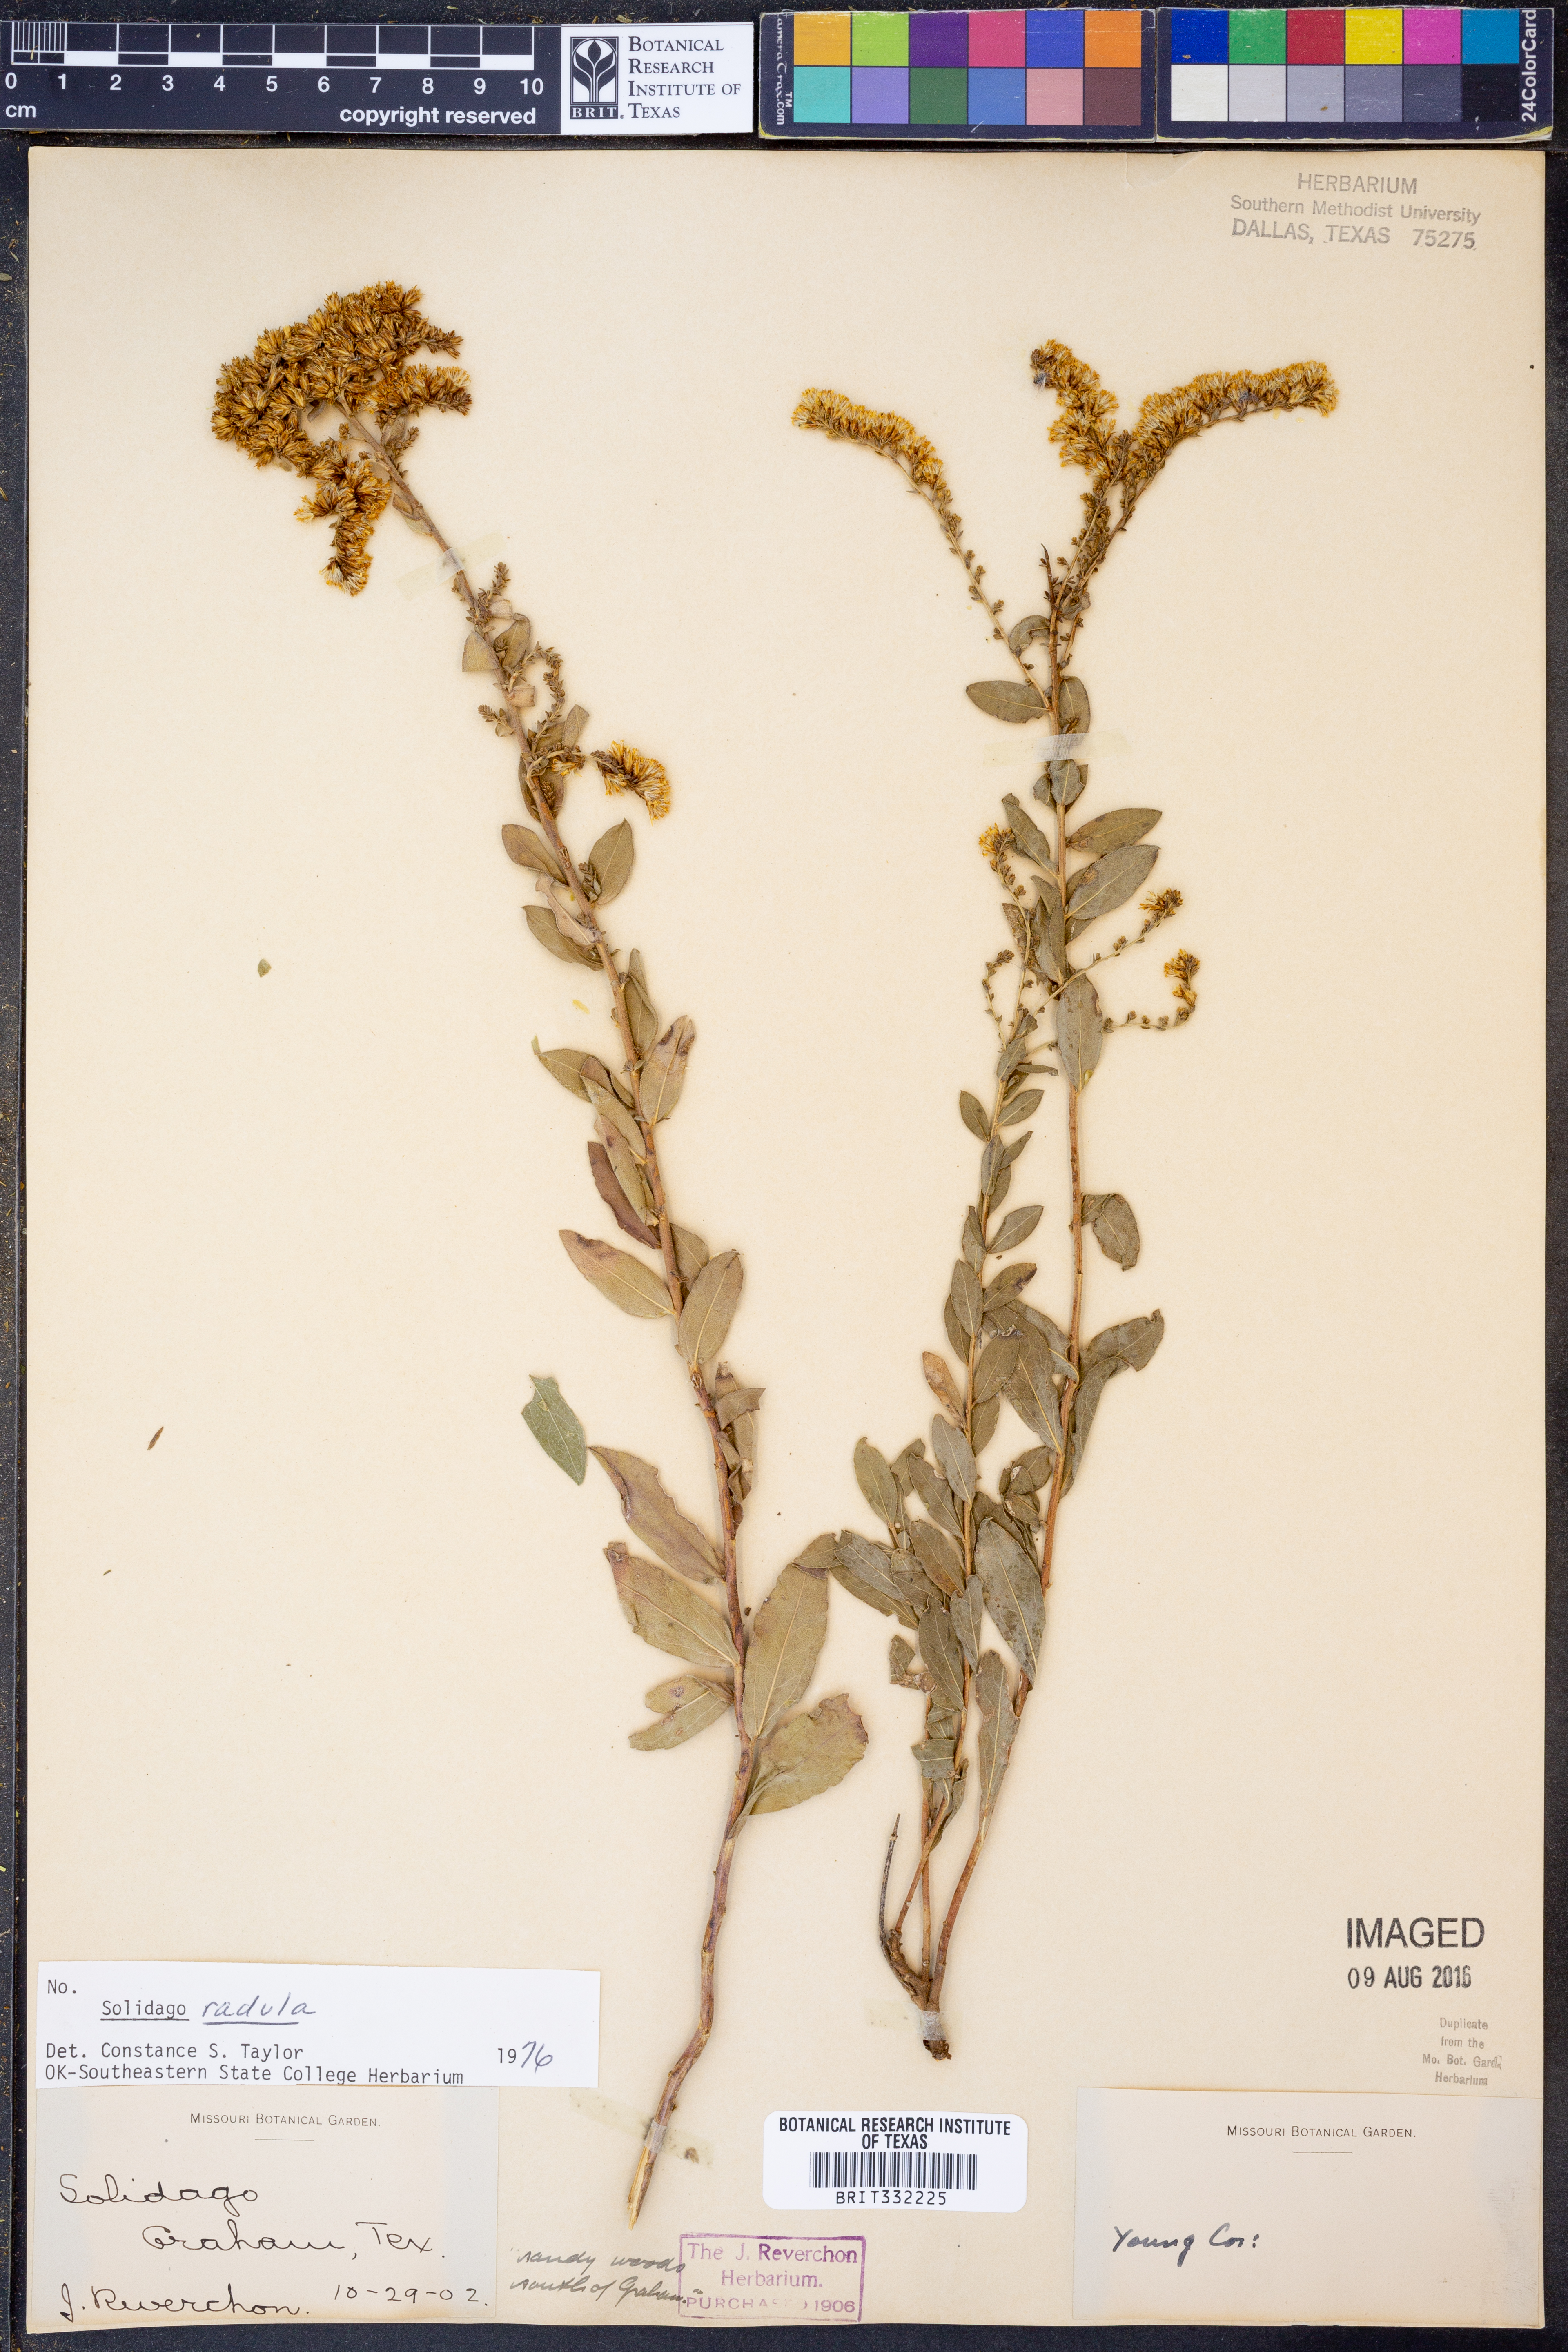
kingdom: Plantae
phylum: Tracheophyta
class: Magnoliopsida
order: Asterales
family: Asteraceae
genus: Solidago
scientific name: Solidago radula
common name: Western rough goldenrod
